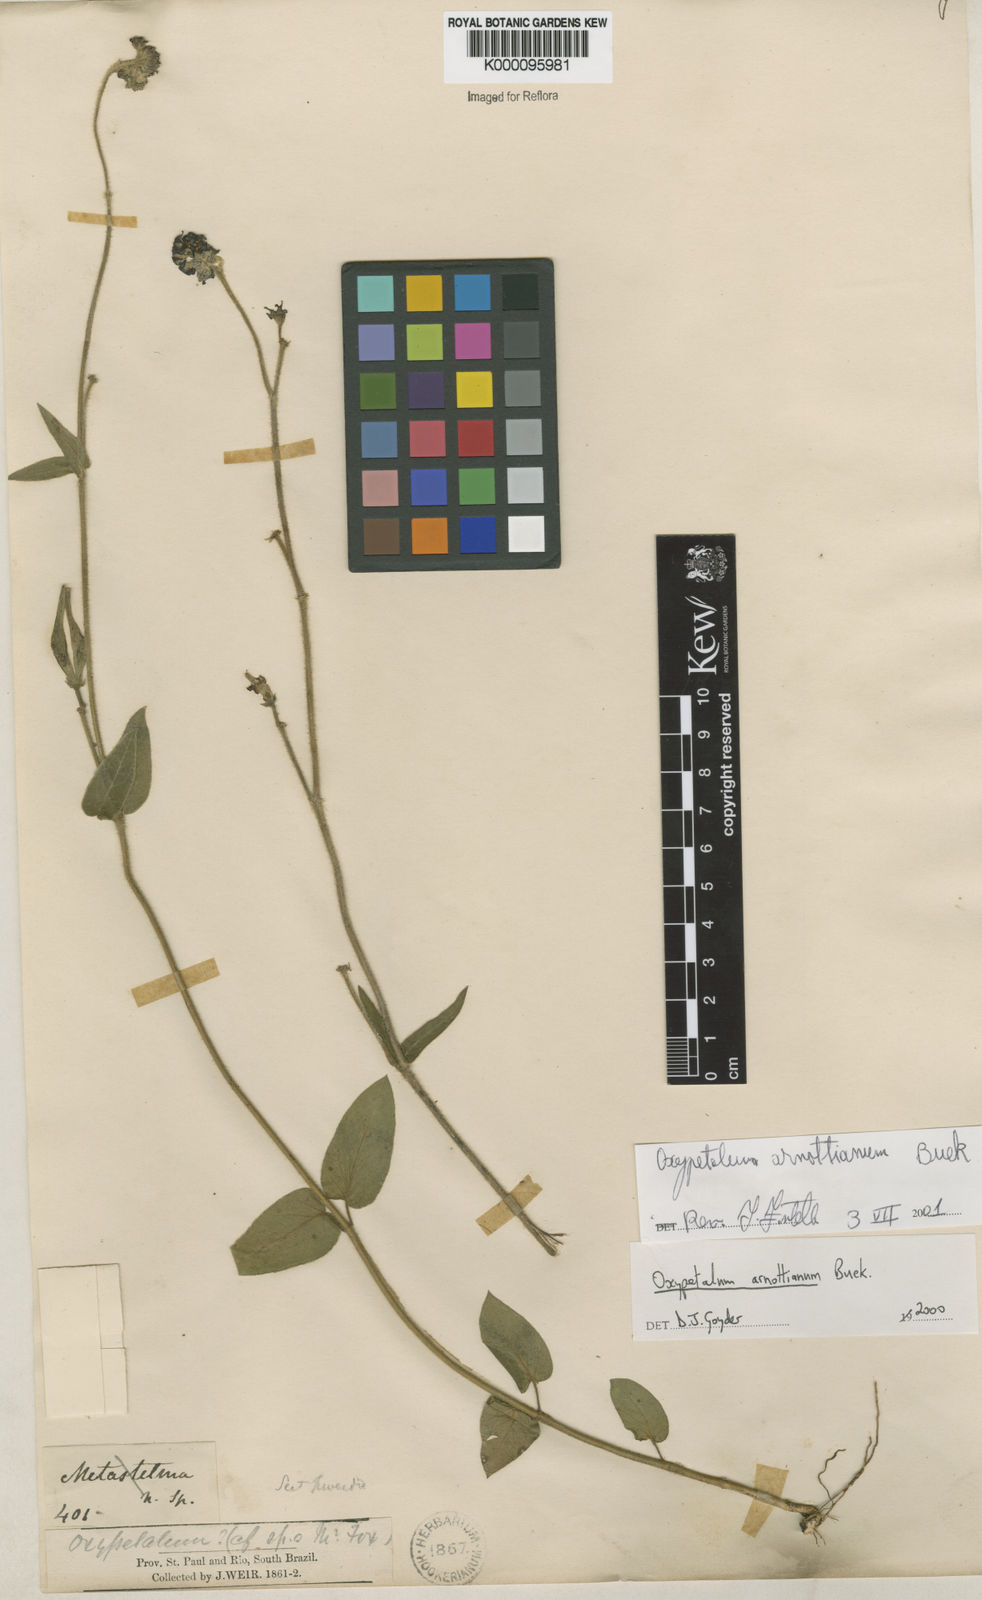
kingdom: Plantae
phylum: Tracheophyta
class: Magnoliopsida
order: Gentianales
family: Apocynaceae
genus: Oxypetalum
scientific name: Oxypetalum arnottianum
